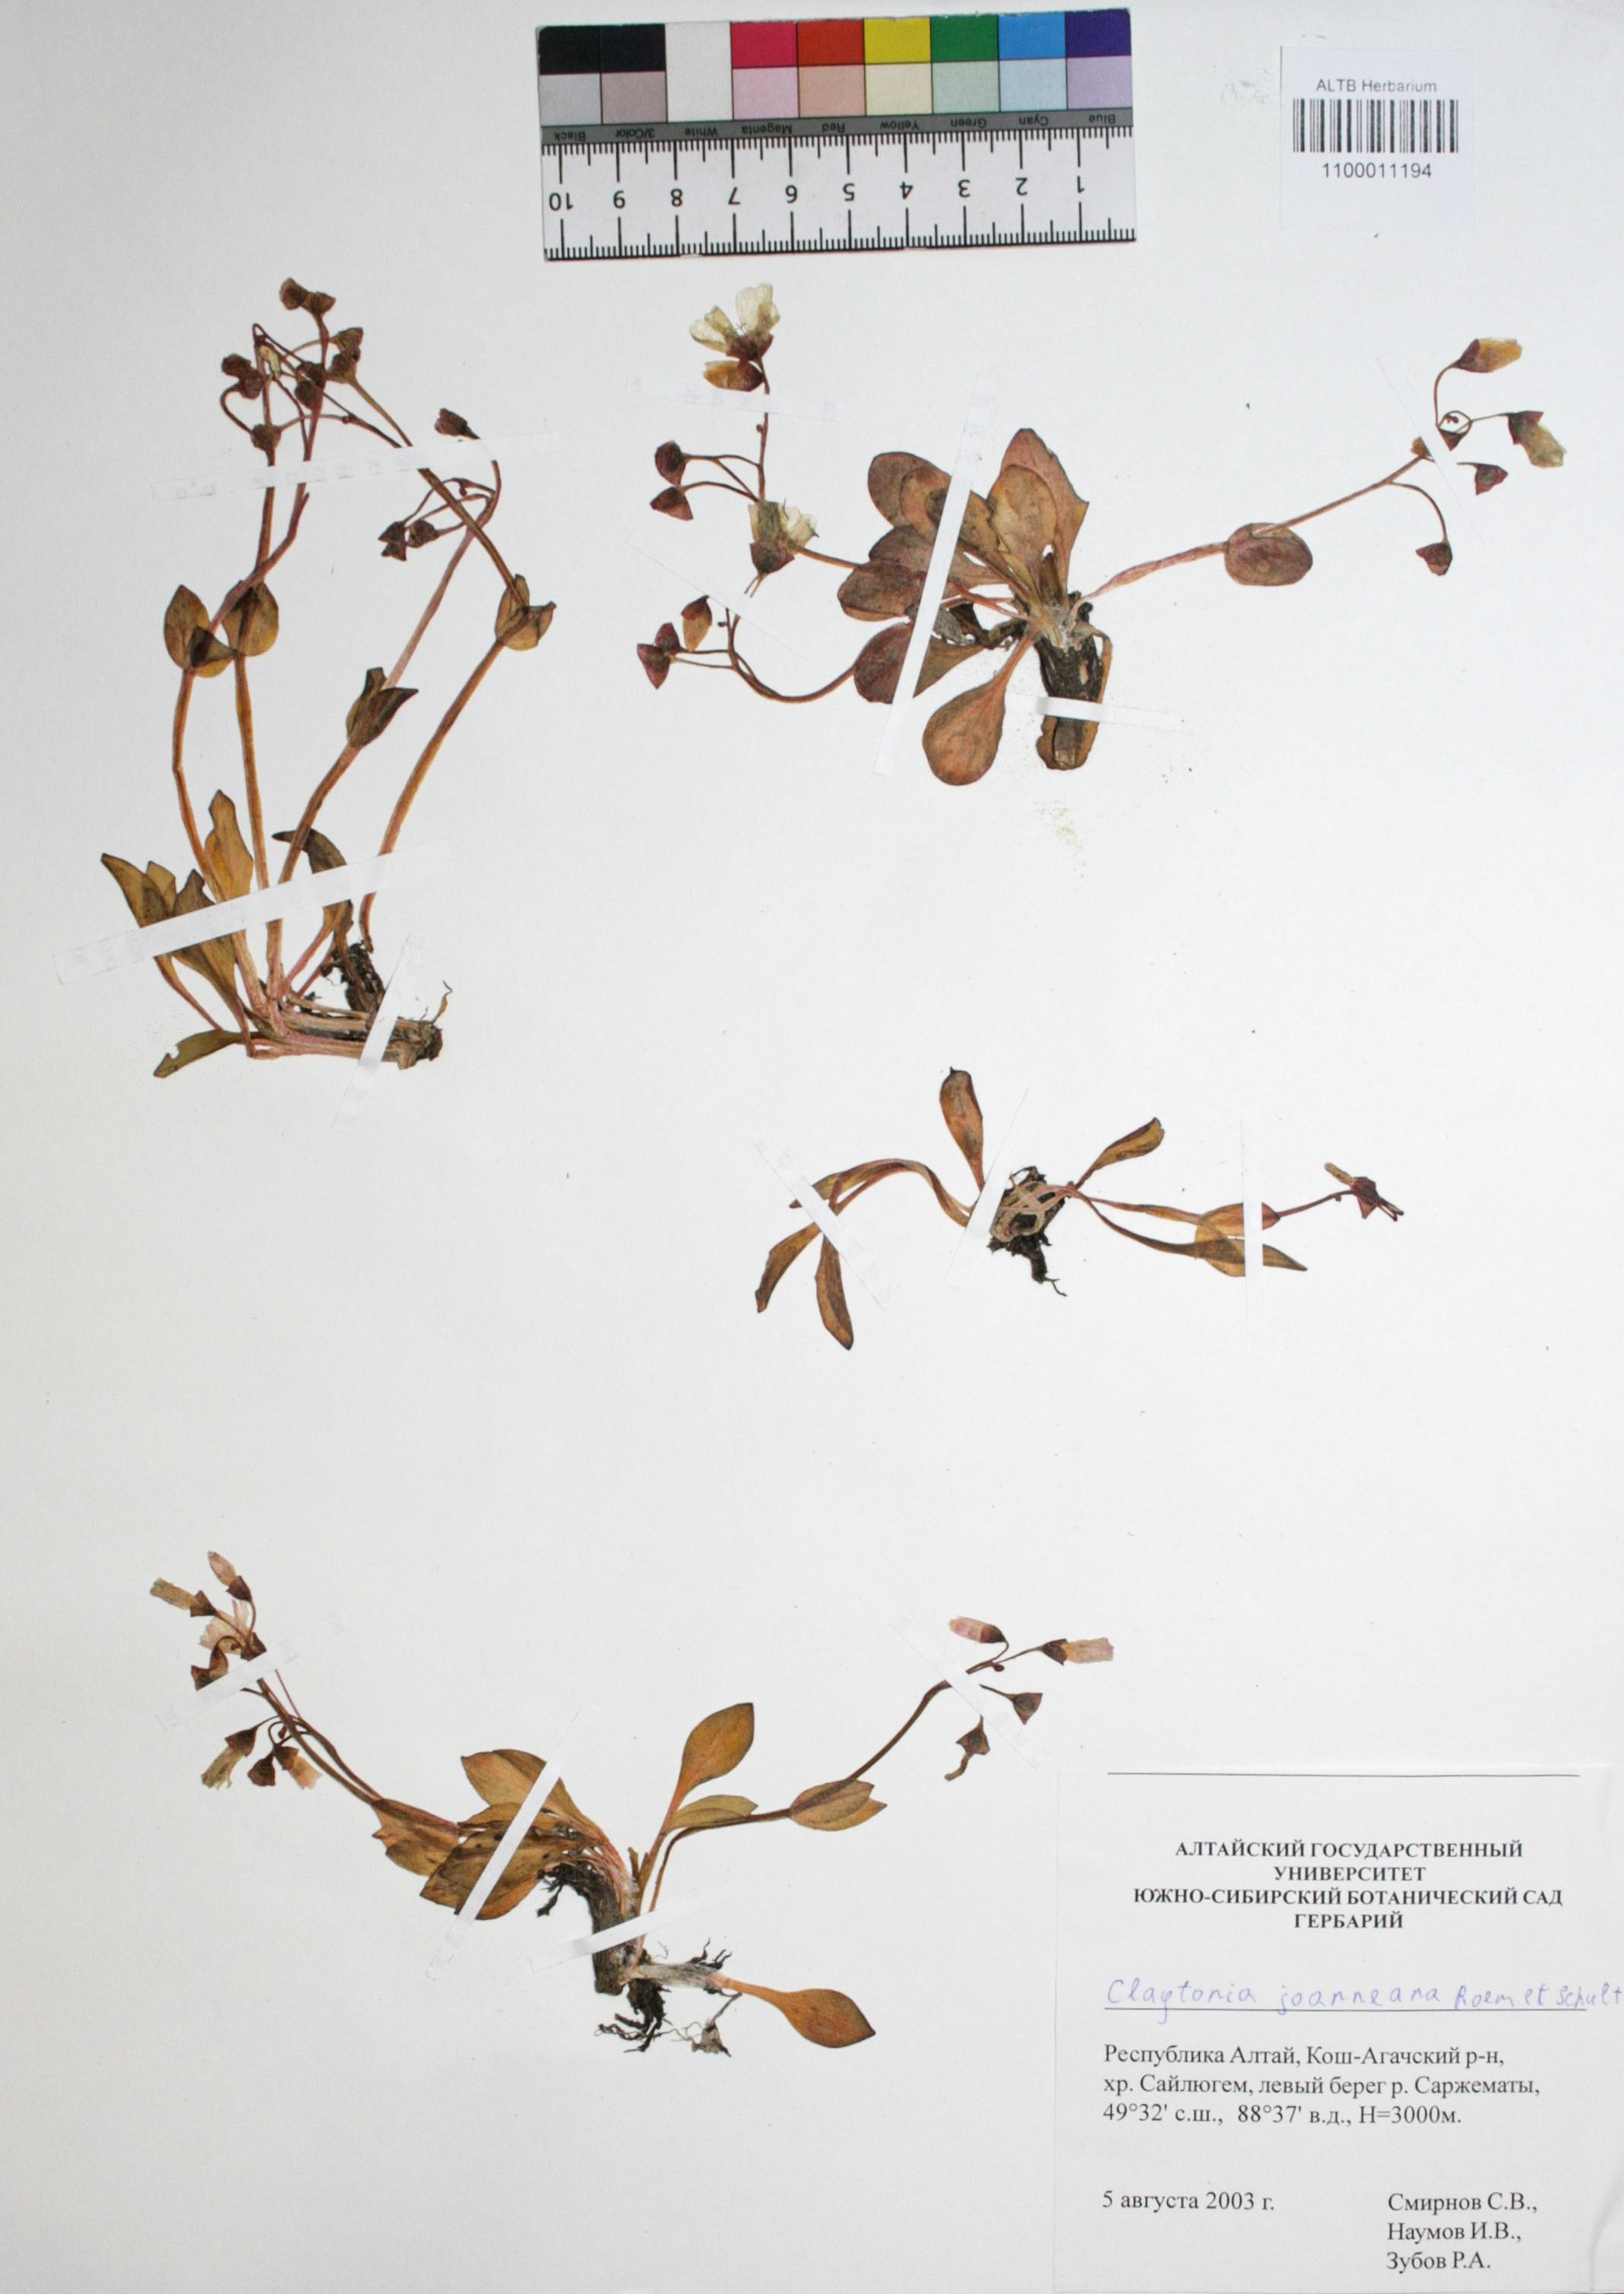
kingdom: Plantae
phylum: Tracheophyta
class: Magnoliopsida
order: Caryophyllales
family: Montiaceae
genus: Claytonia
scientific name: Claytonia joanneana
